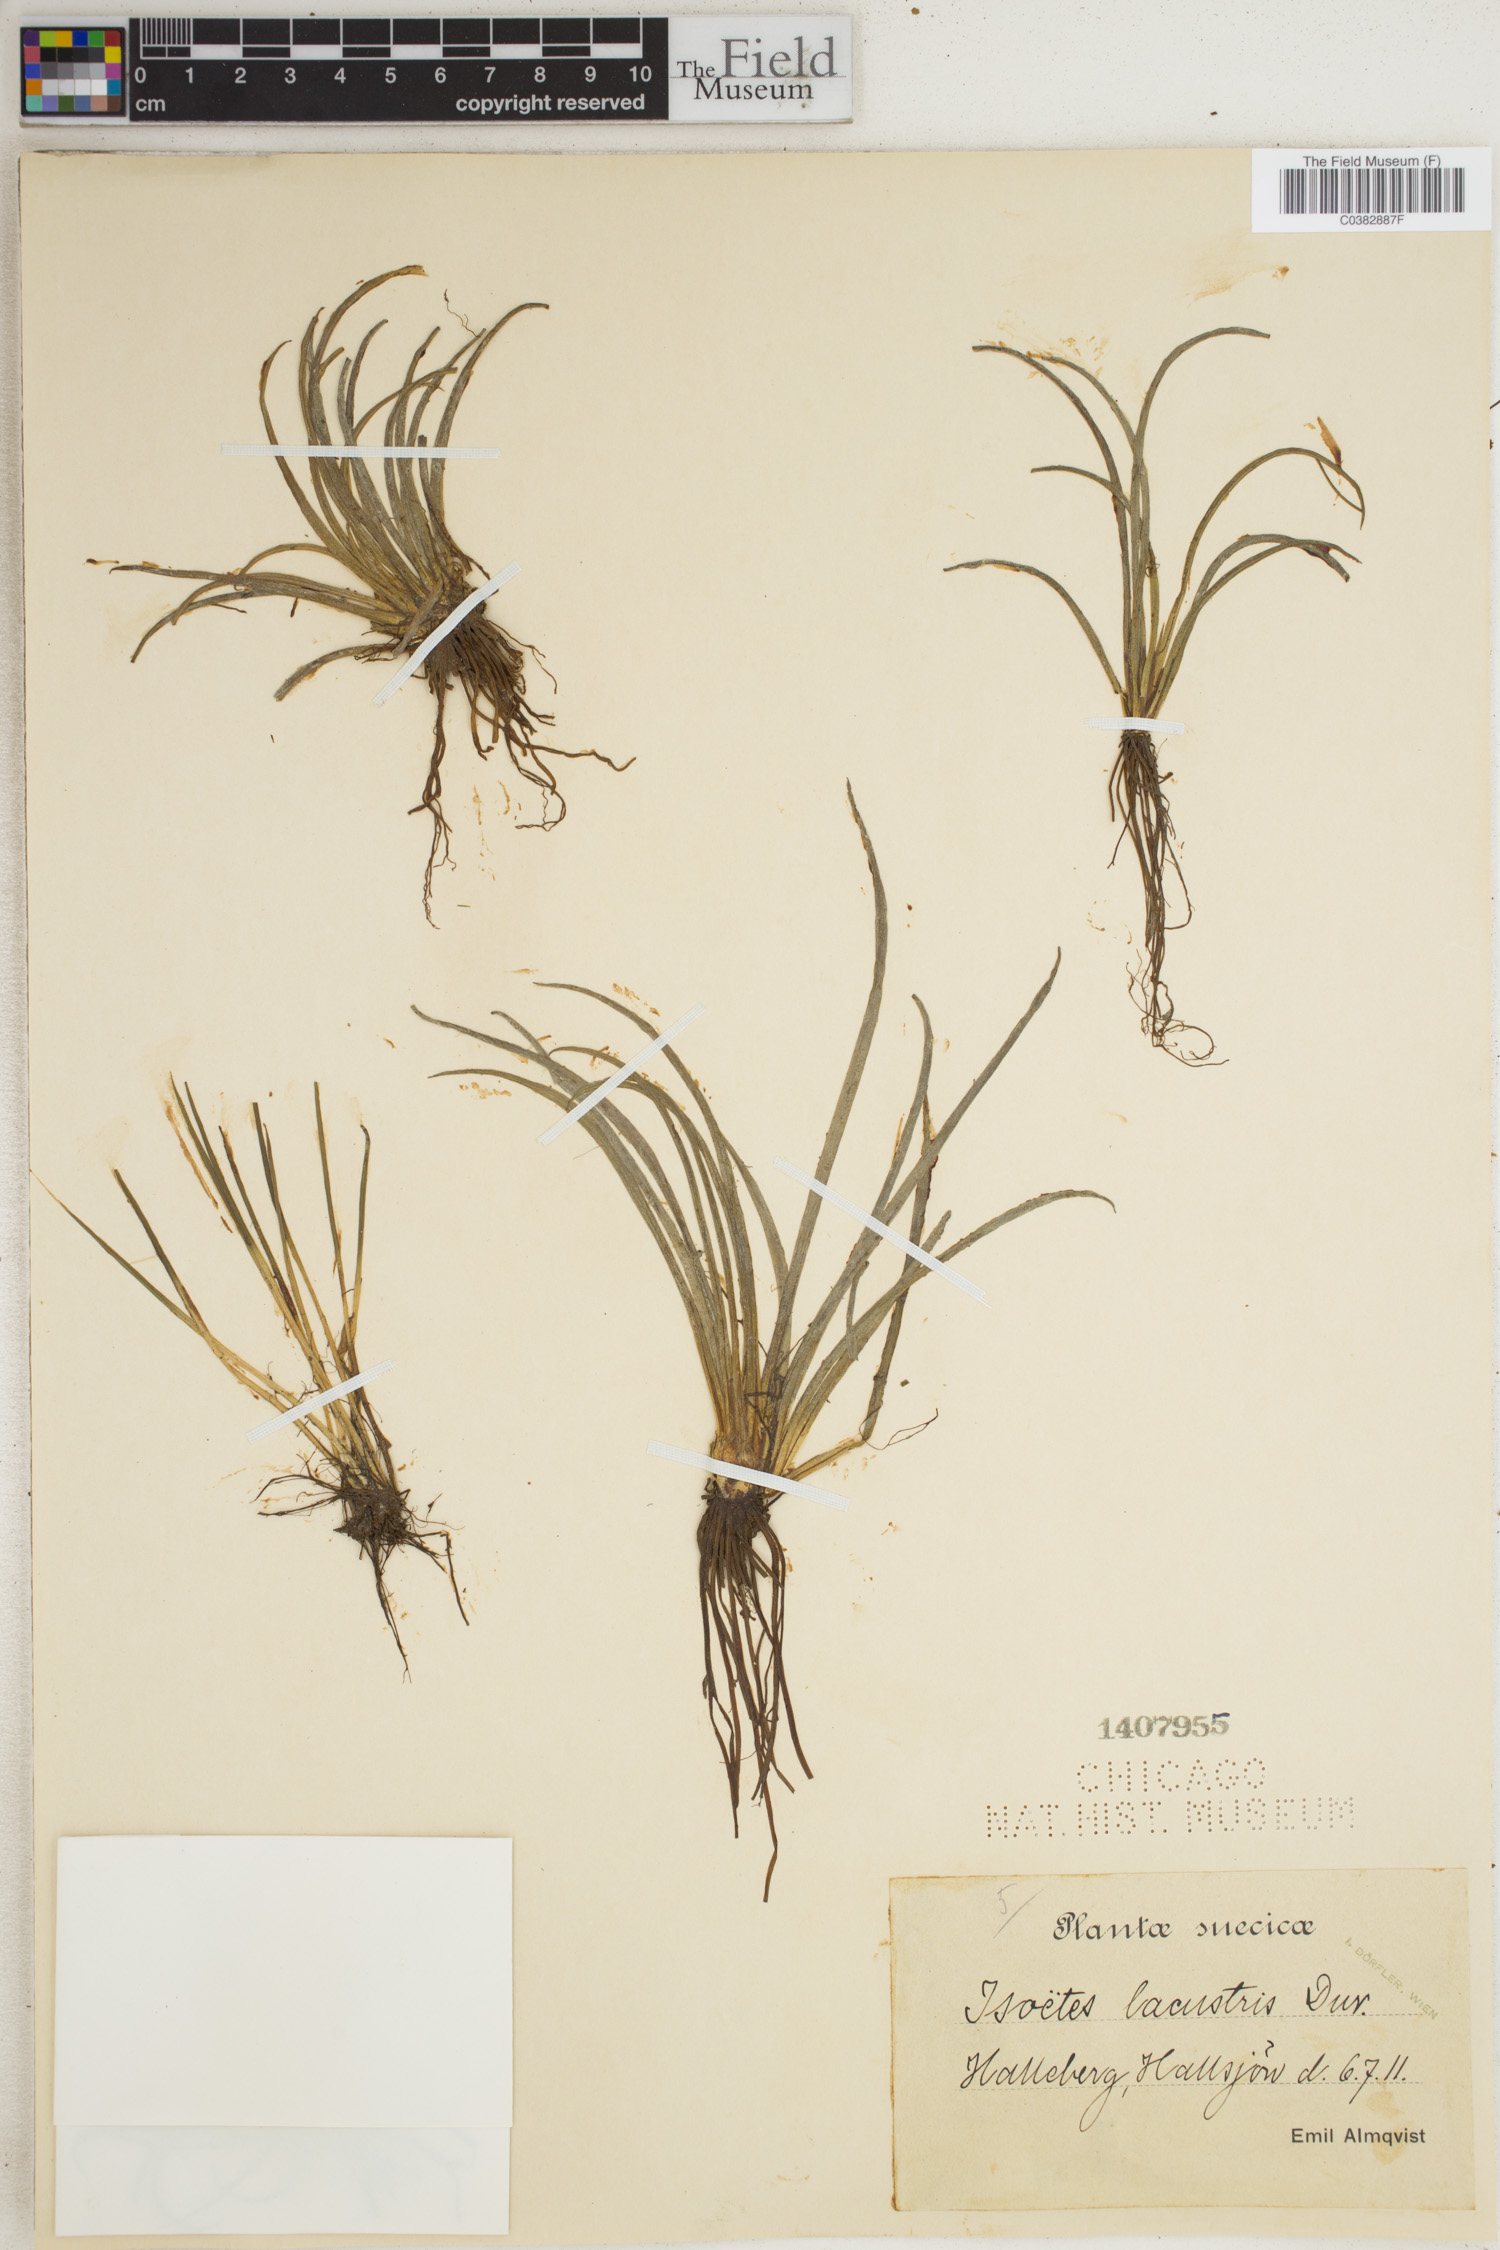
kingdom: Plantae
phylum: Tracheophyta
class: Lycopodiopsida
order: Isoetales
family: Isoetaceae
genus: Isoetes
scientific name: Isoetes lacustris
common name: Common quillwort
